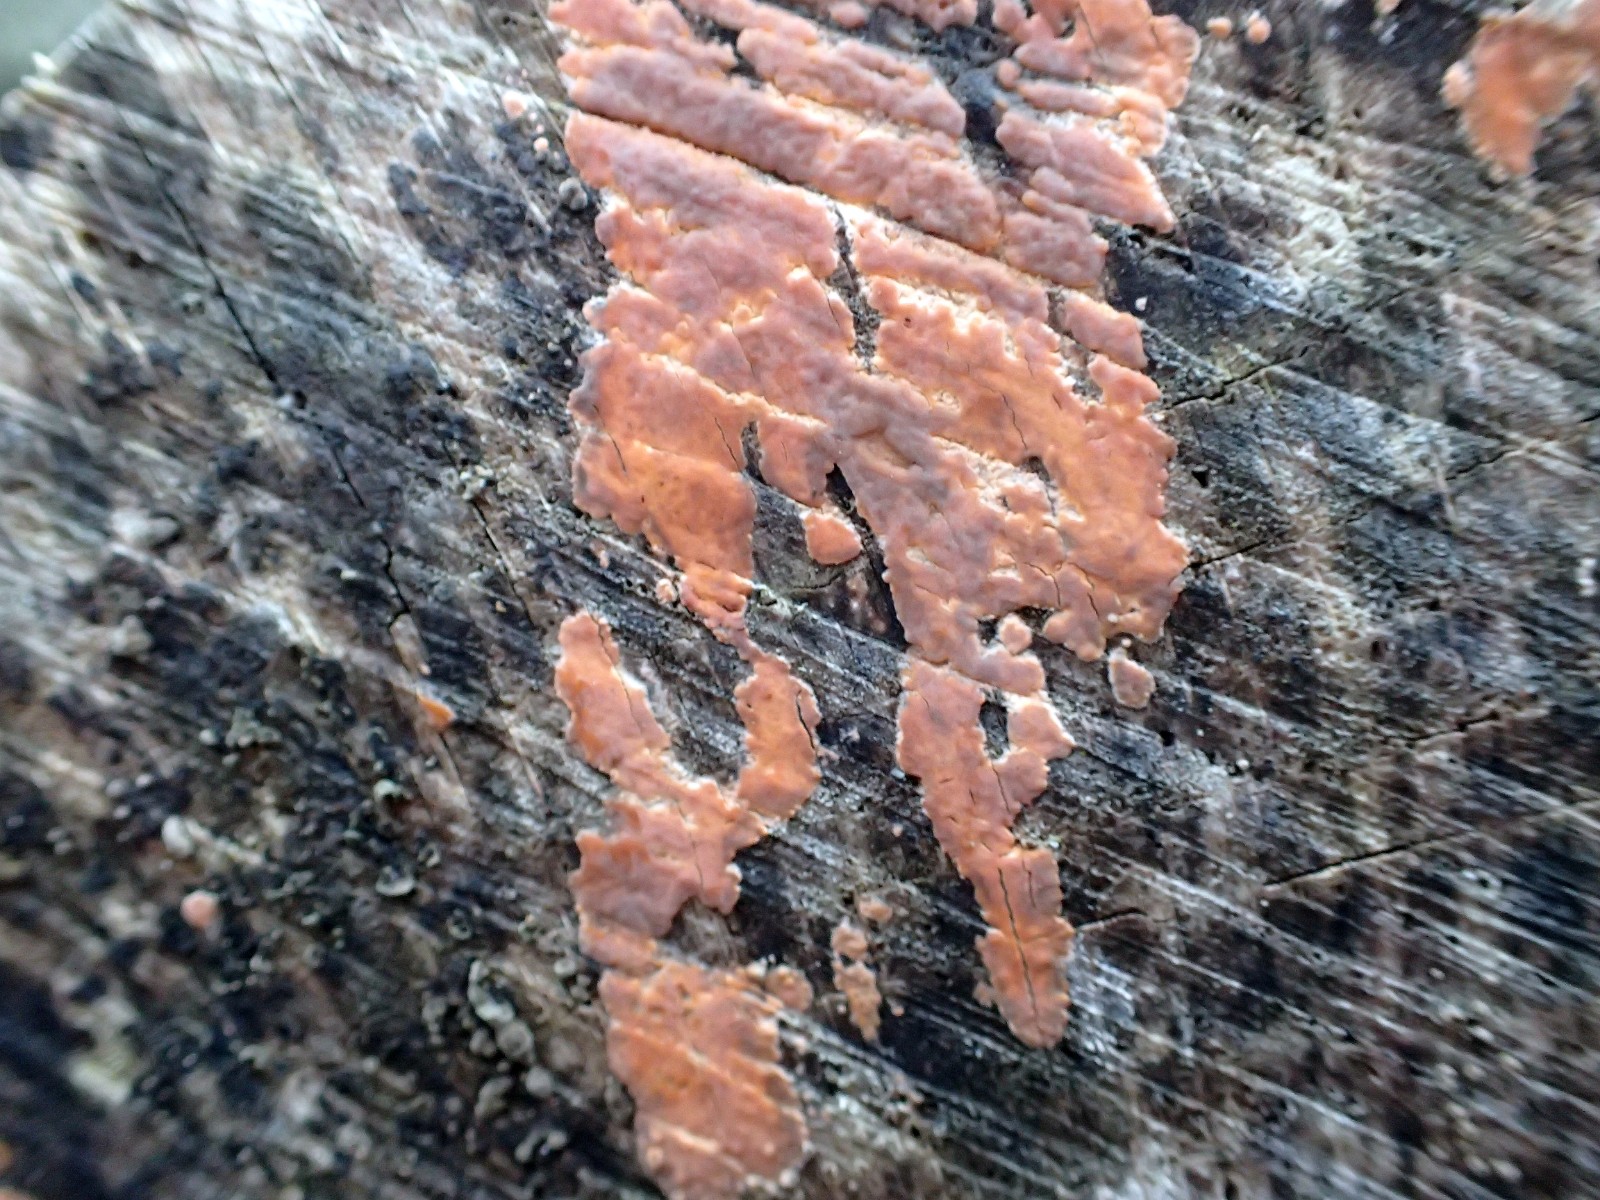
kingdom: Fungi
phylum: Basidiomycota
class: Agaricomycetes
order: Russulales
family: Peniophoraceae
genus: Peniophora
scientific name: Peniophora incarnata
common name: laksefarvet voksskind
